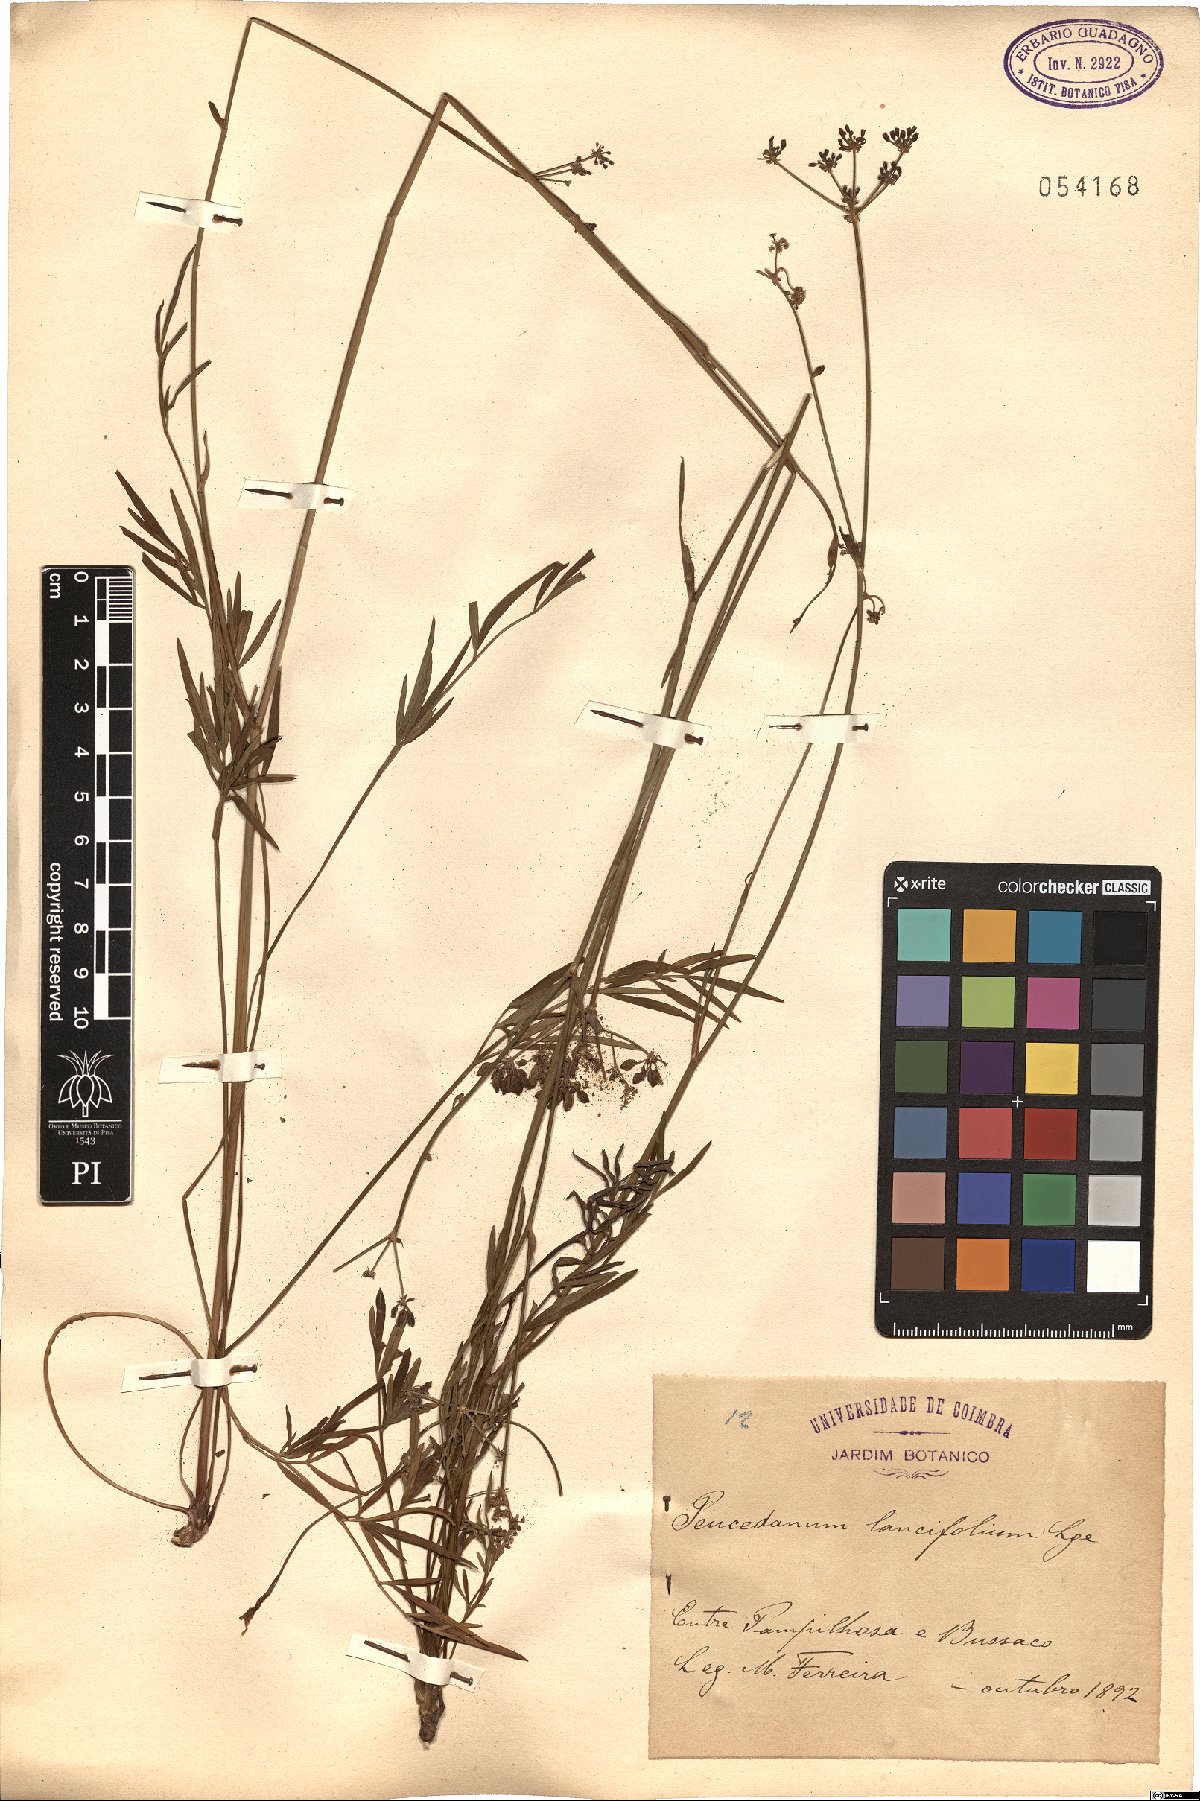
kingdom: Plantae
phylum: Tracheophyta
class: Magnoliopsida
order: Apiales
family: Apiaceae
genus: Thysselinum
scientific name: Thysselinum lancifolium
